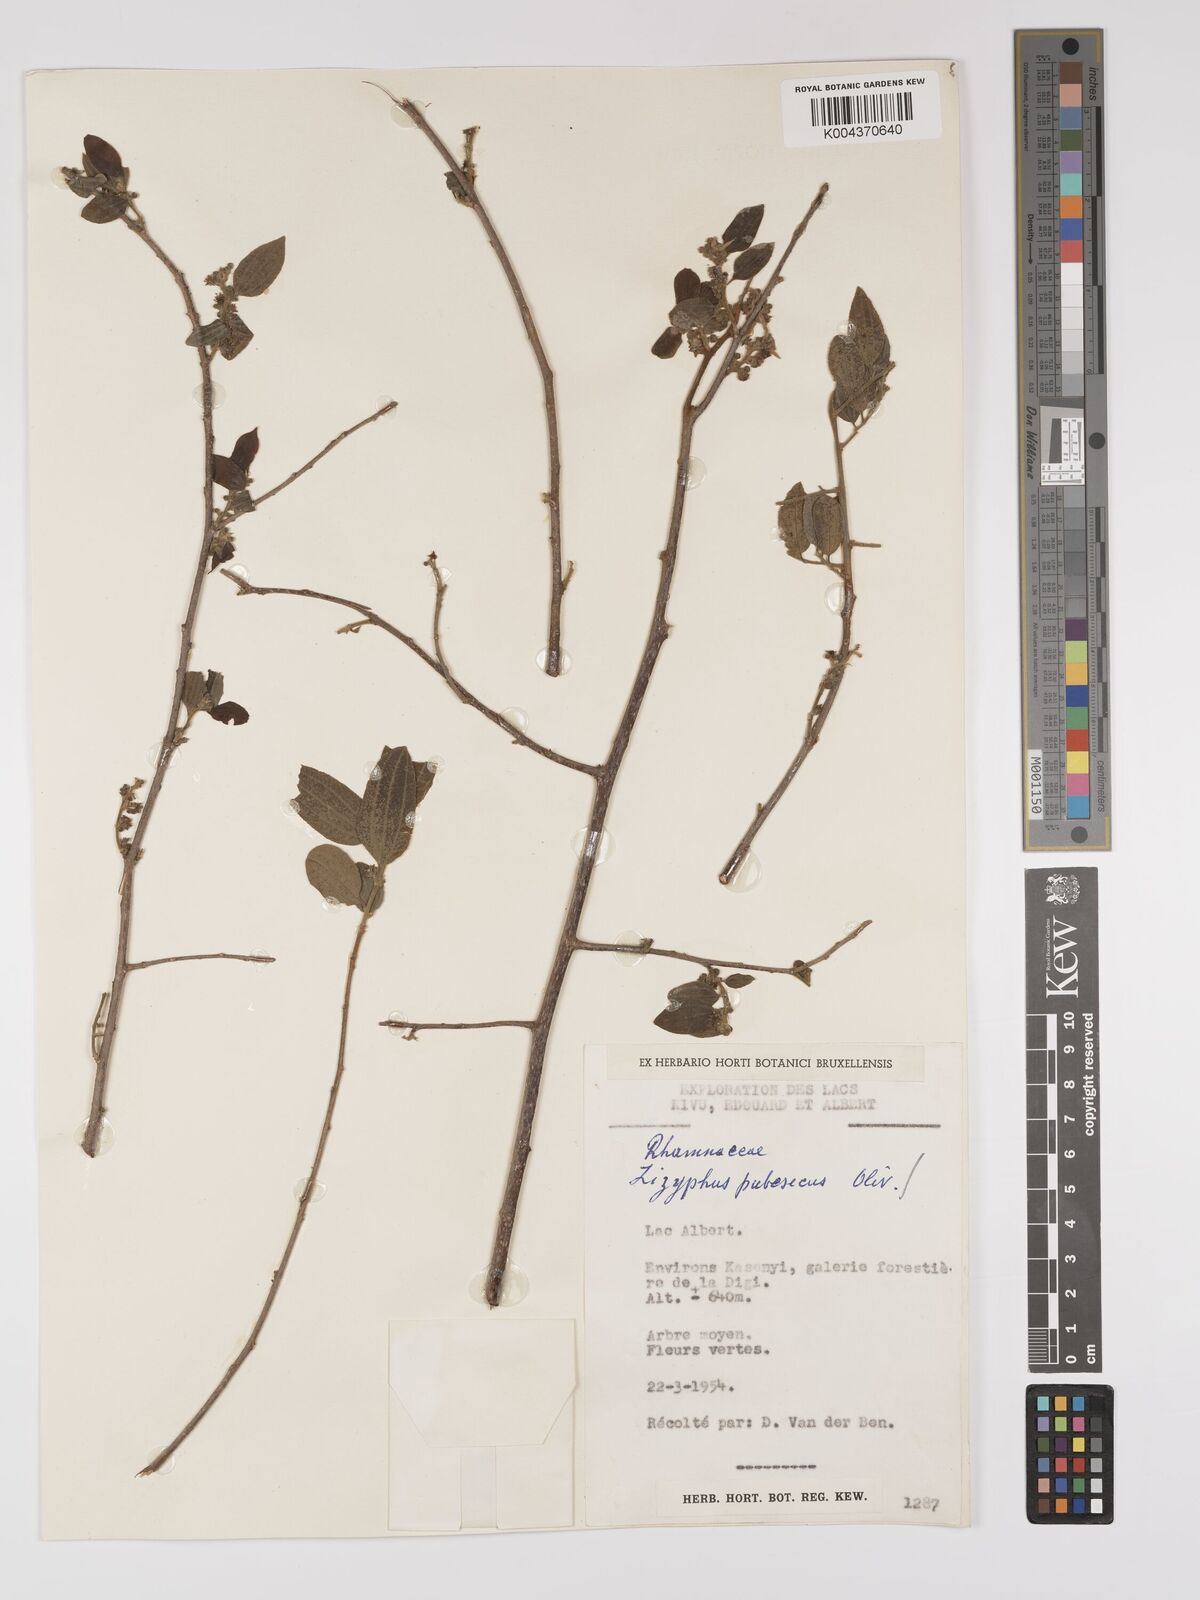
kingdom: Plantae
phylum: Tracheophyta
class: Magnoliopsida
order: Rosales
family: Rhamnaceae
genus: Ziziphus
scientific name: Ziziphus pubescens
